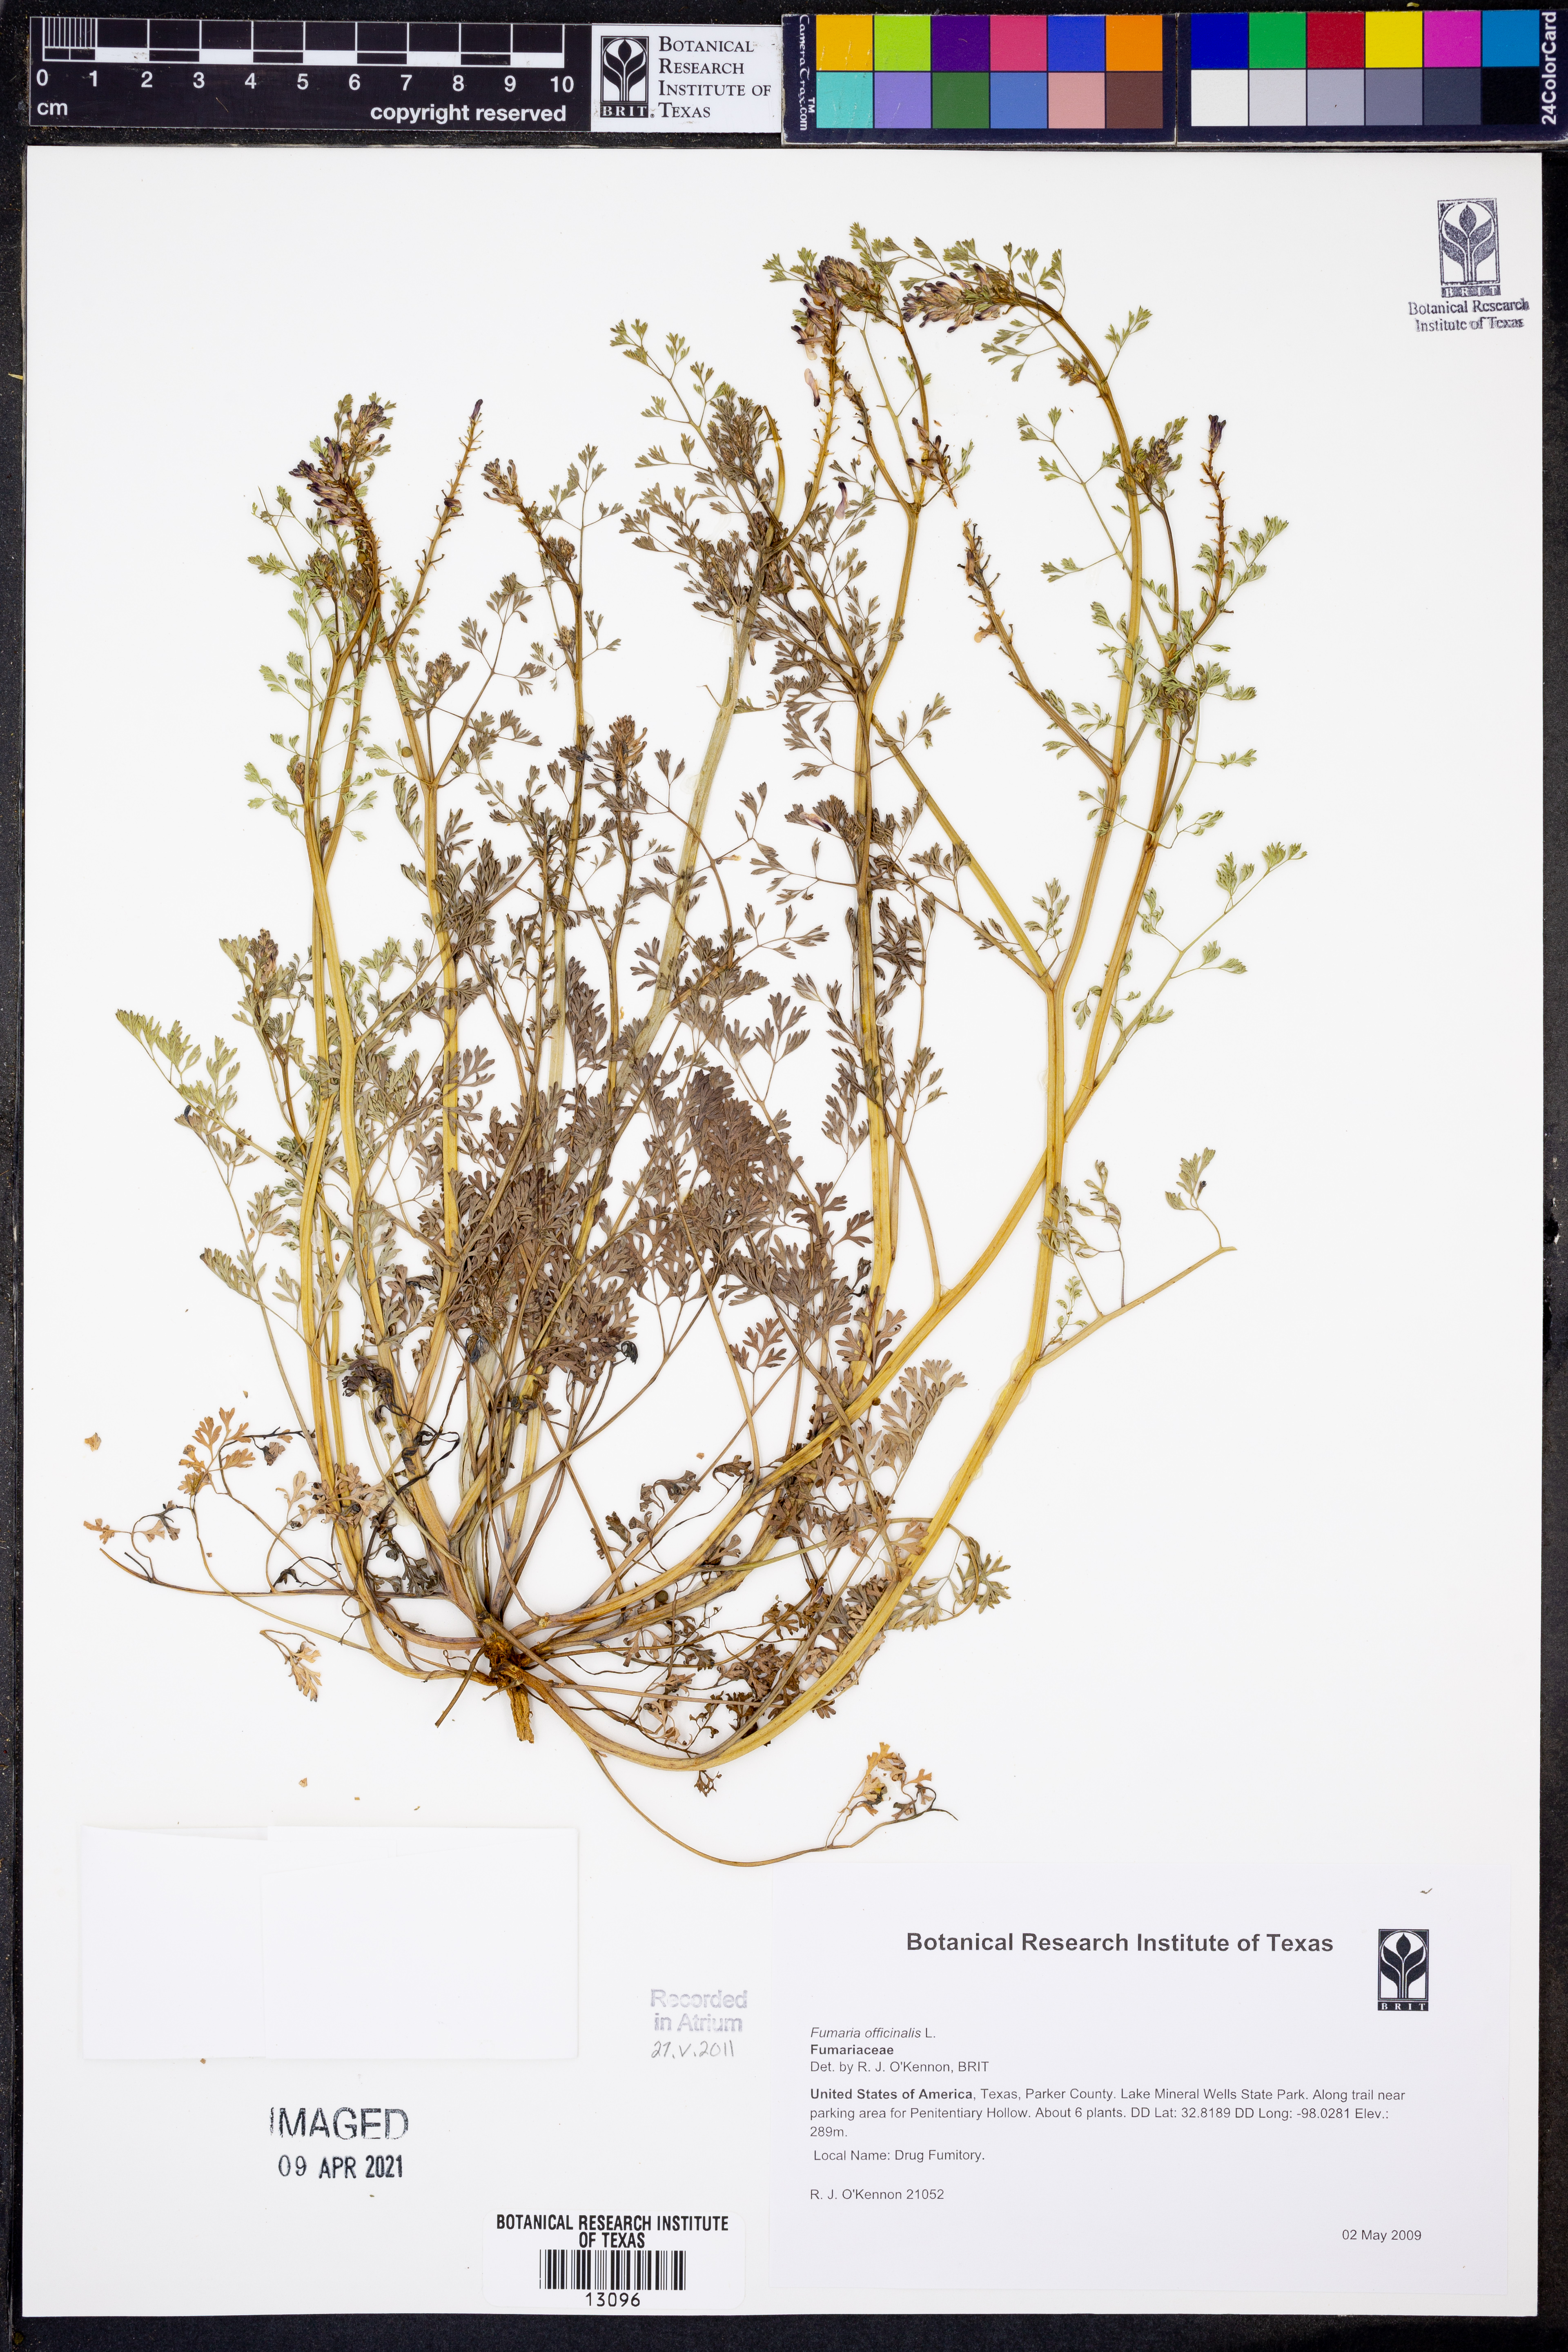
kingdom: Plantae
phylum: Tracheophyta
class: Magnoliopsida
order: Ranunculales
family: Papaveraceae
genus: Fumaria
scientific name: Fumaria officinalis
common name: Common fumitory
